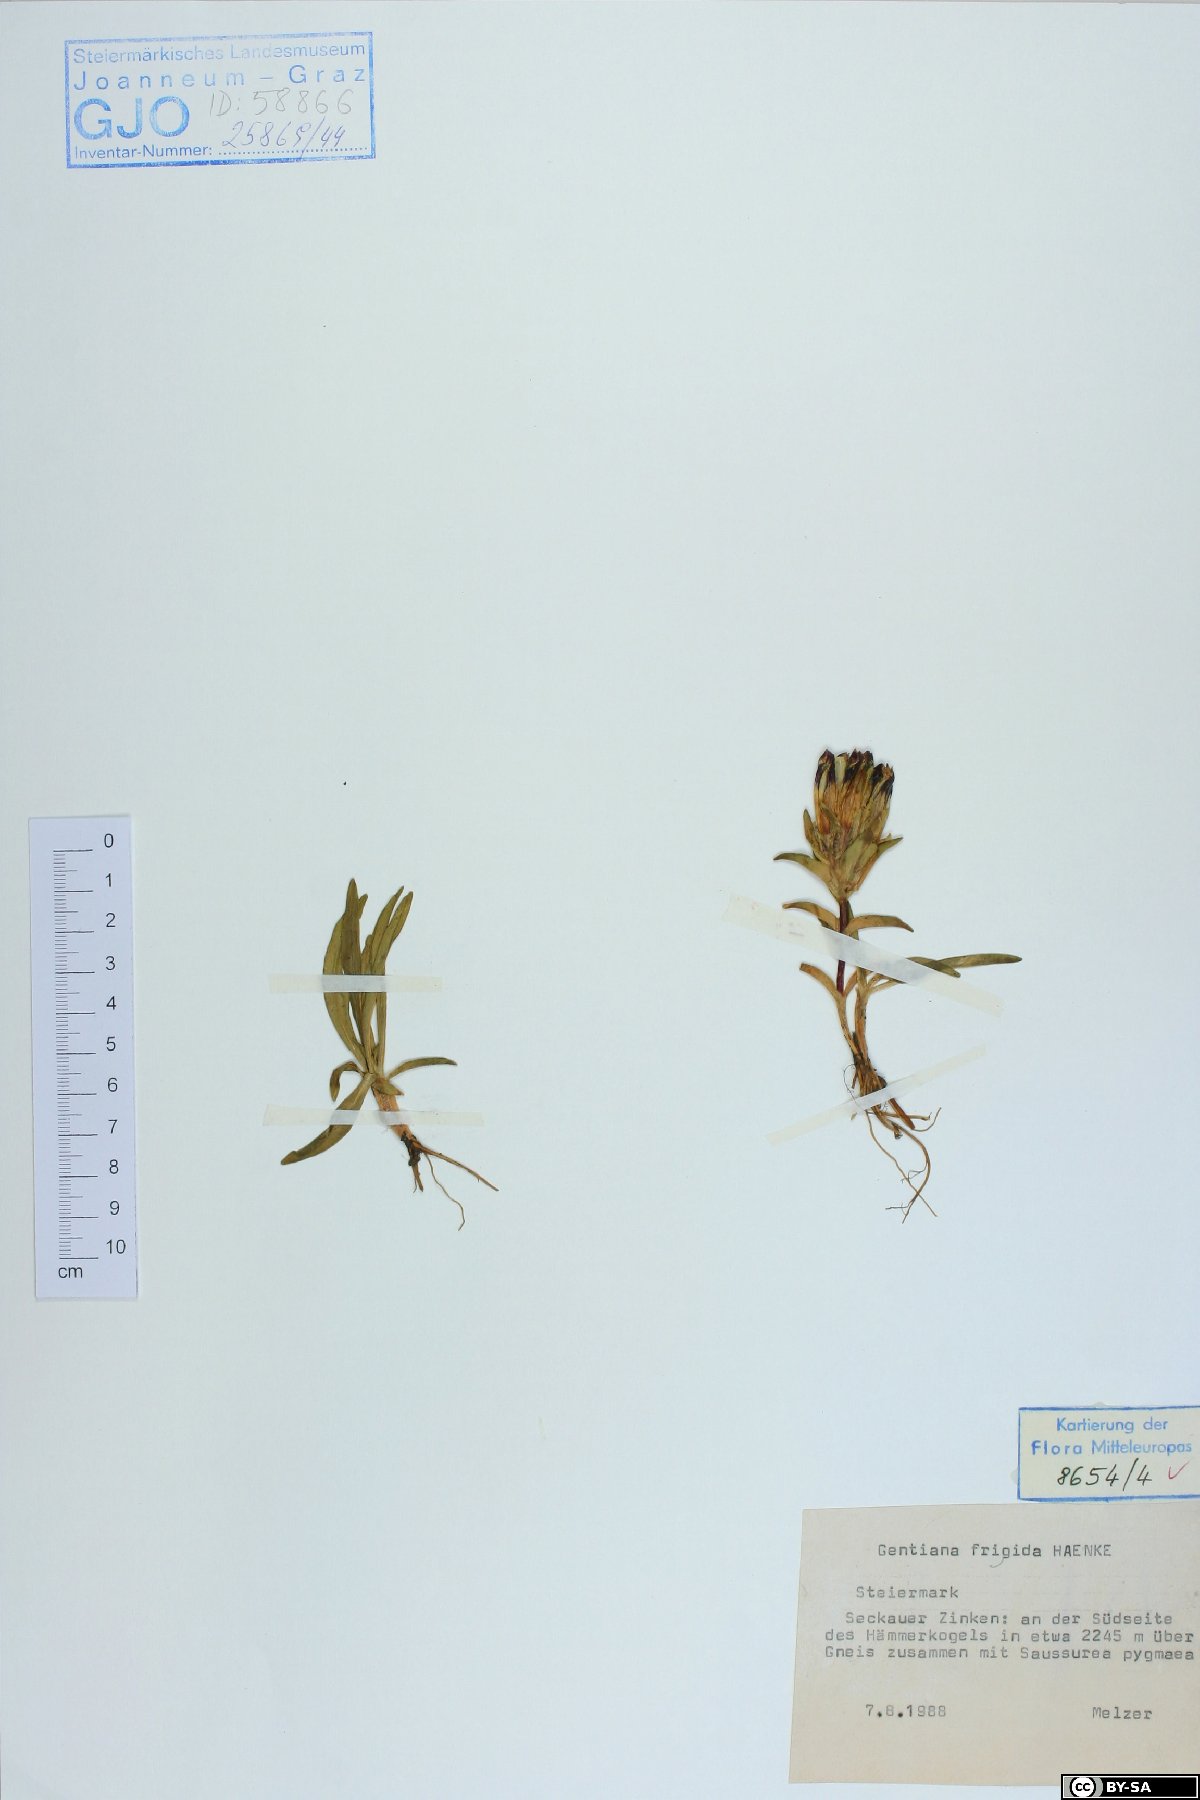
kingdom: Plantae
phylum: Tracheophyta
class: Magnoliopsida
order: Gentianales
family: Gentianaceae
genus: Gentiana
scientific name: Gentiana frigida
